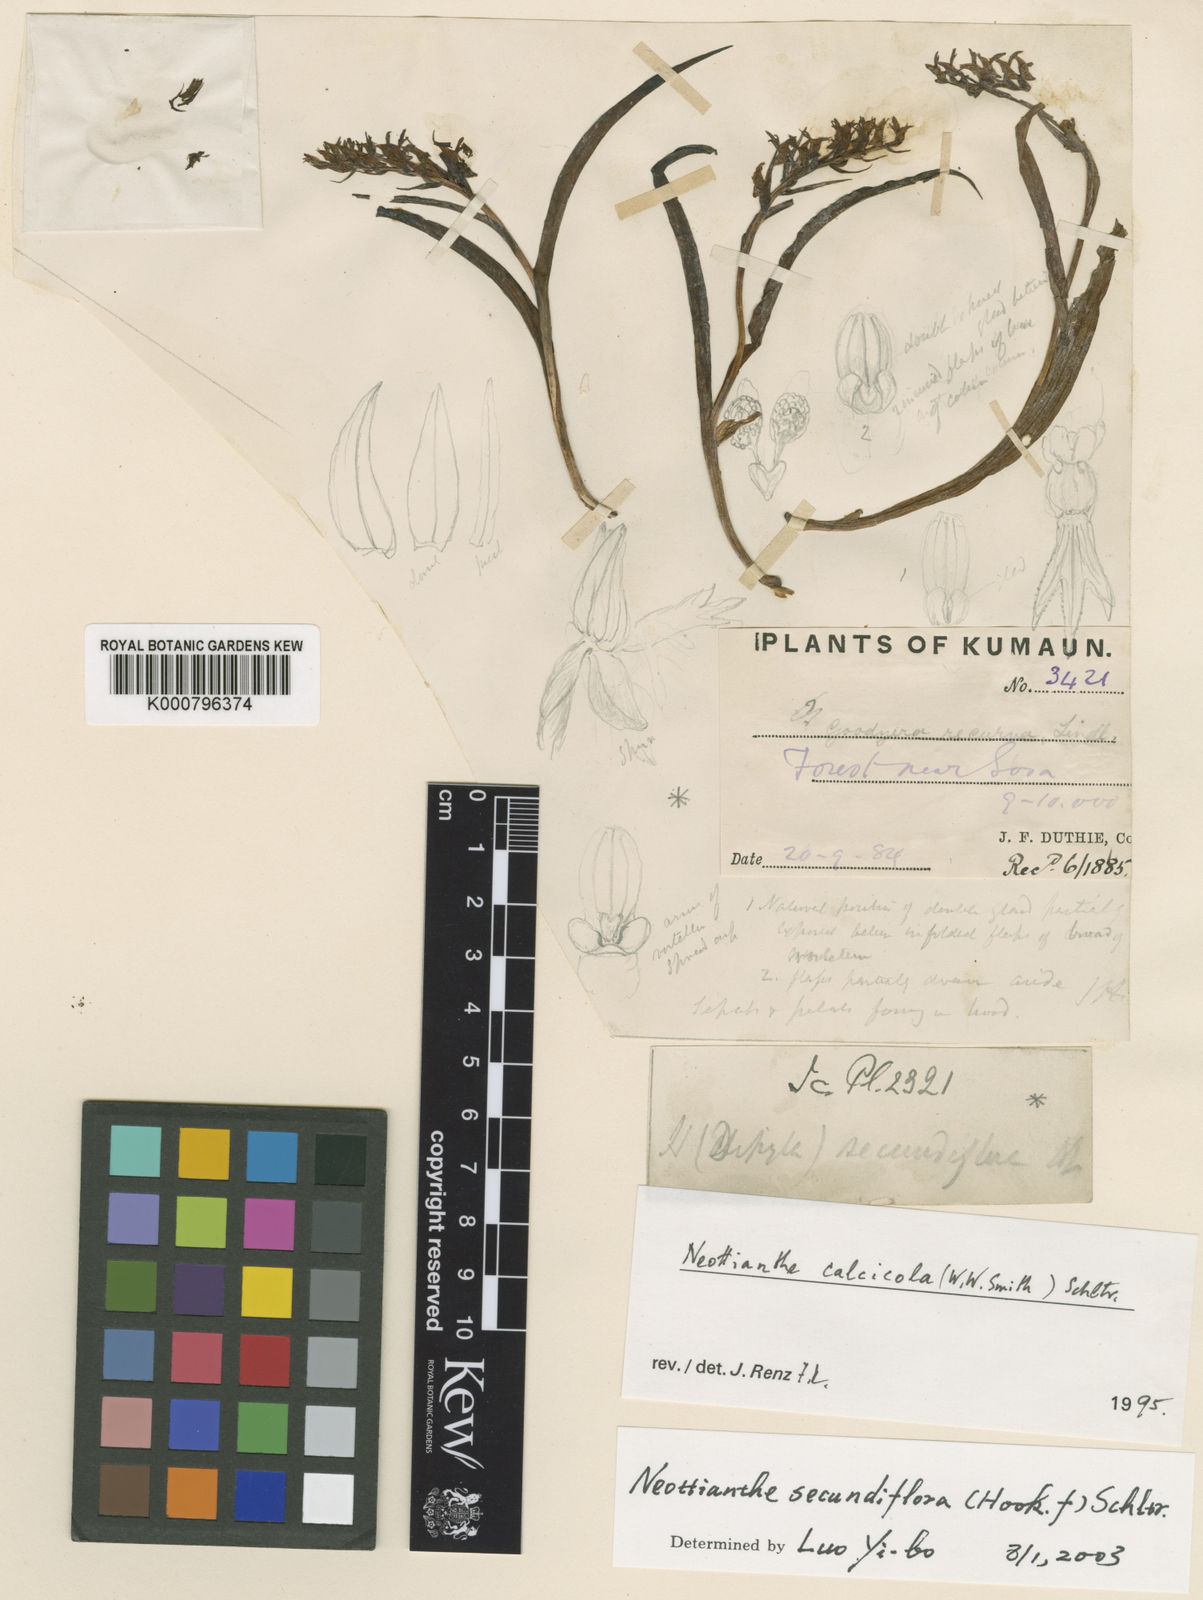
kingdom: Plantae
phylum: Tracheophyta
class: Liliopsida
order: Asparagales
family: Orchidaceae
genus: Hemipilia
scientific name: Hemipilia secundiflora
